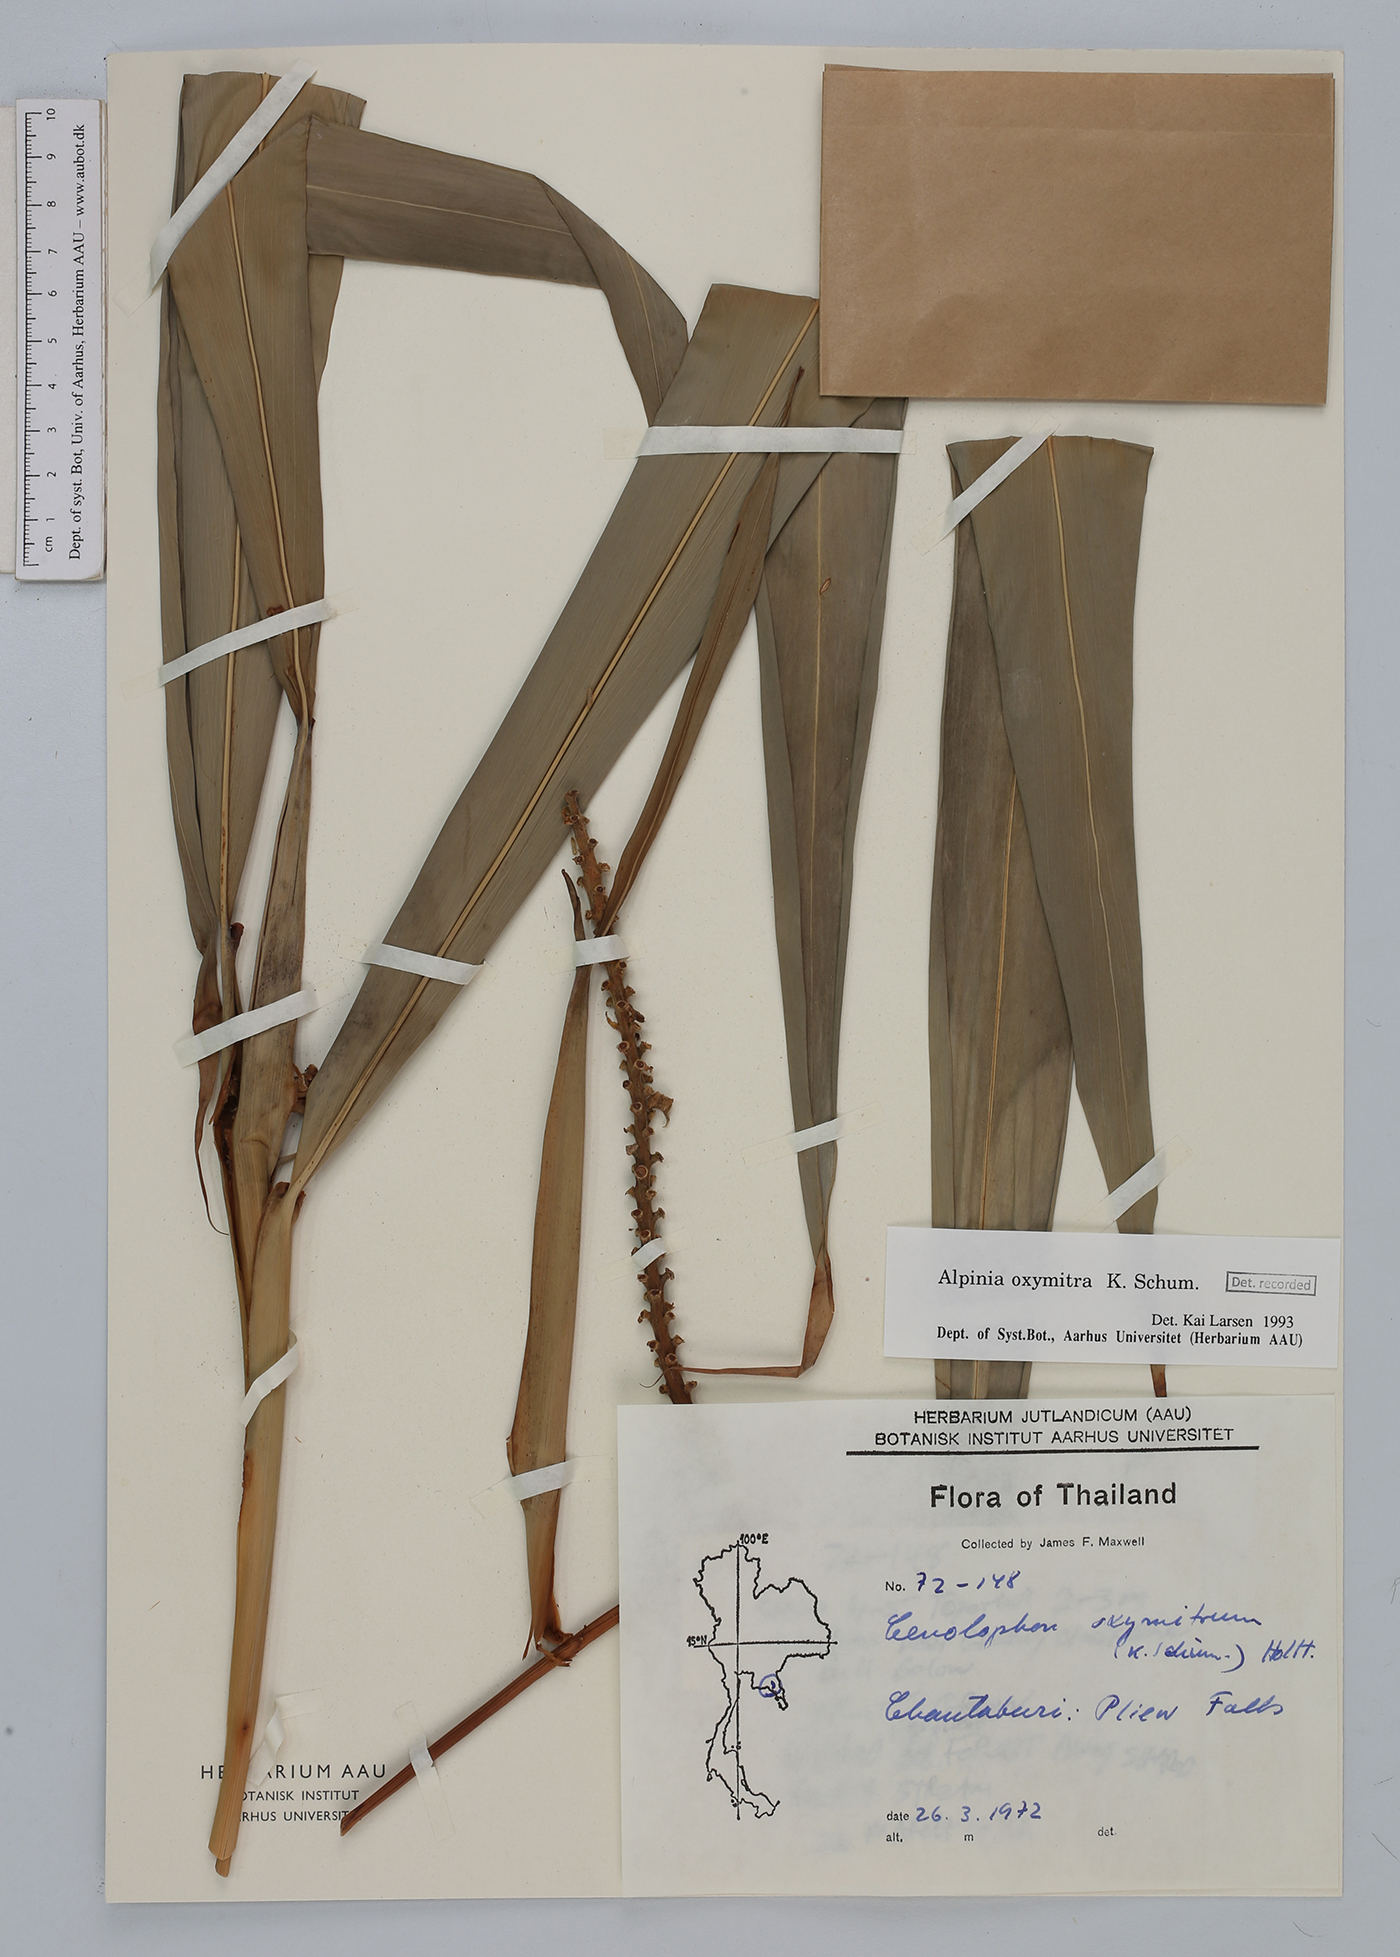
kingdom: Plantae
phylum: Tracheophyta
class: Liliopsida
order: Zingiberales
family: Zingiberaceae
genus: Alpinia
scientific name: Alpinia oxymitra
